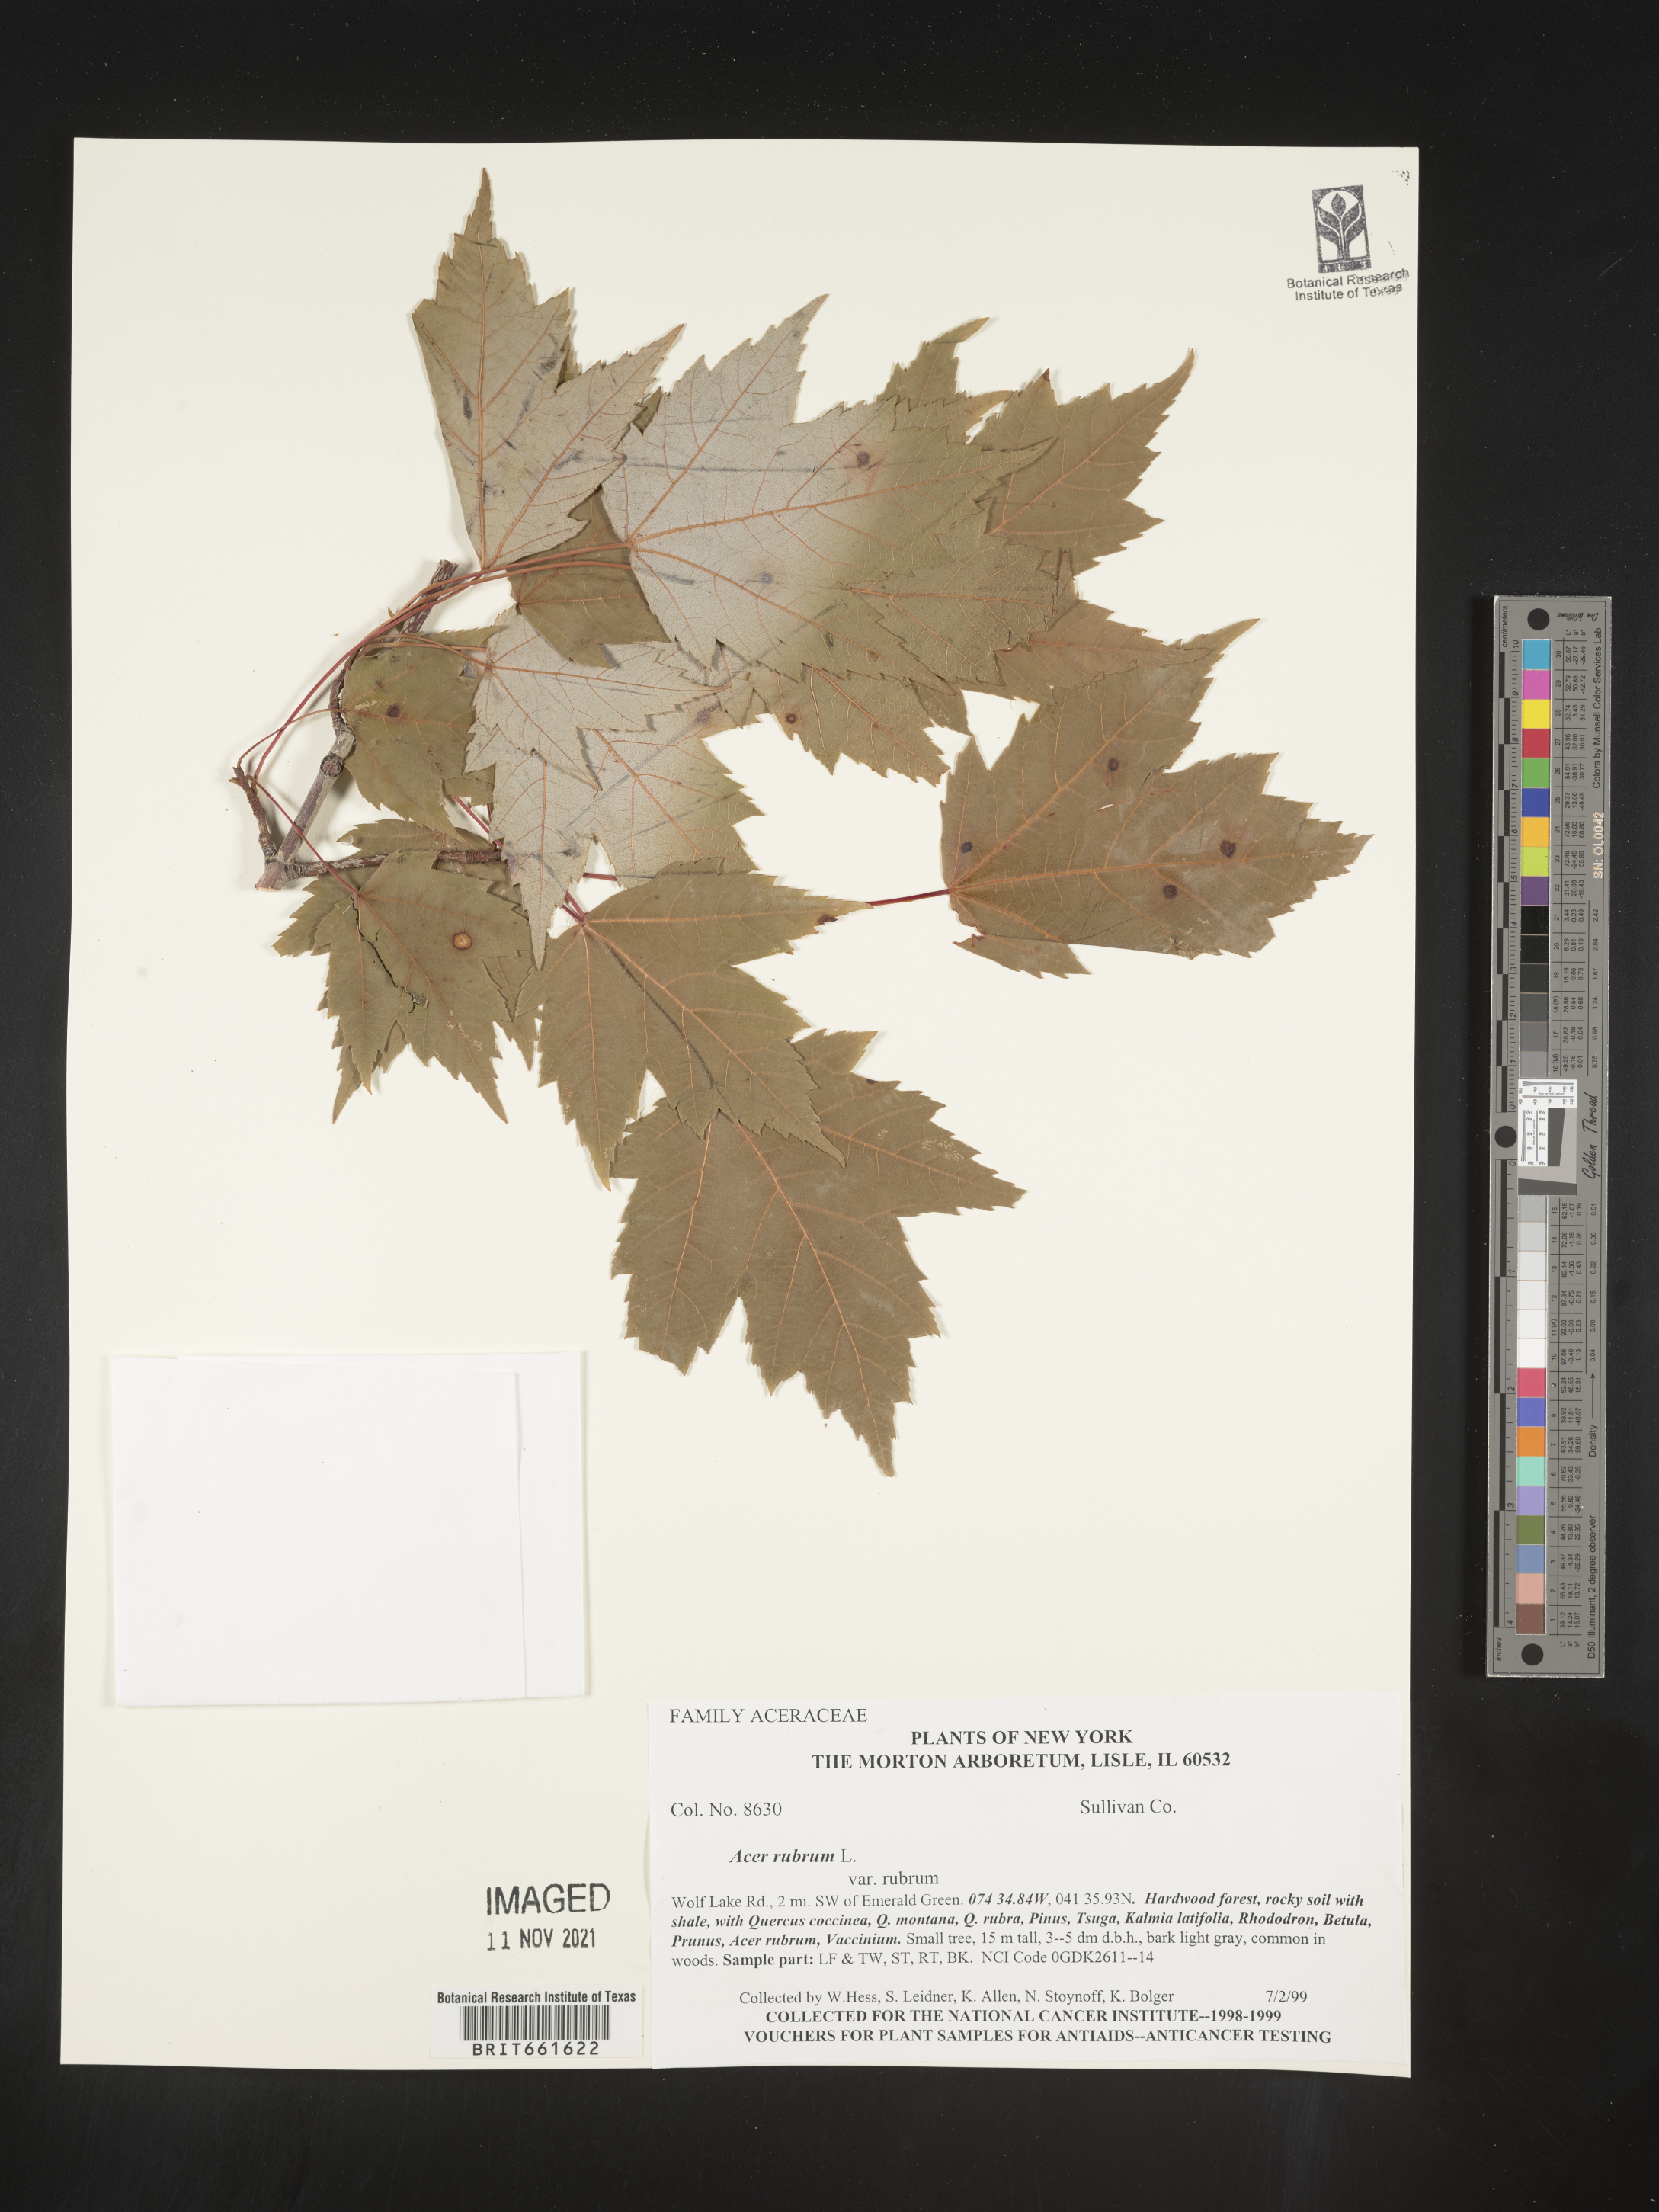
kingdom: Plantae
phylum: Tracheophyta
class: Magnoliopsida
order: Sapindales
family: Sapindaceae
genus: Acer
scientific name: Acer rubrum
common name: Red maple
